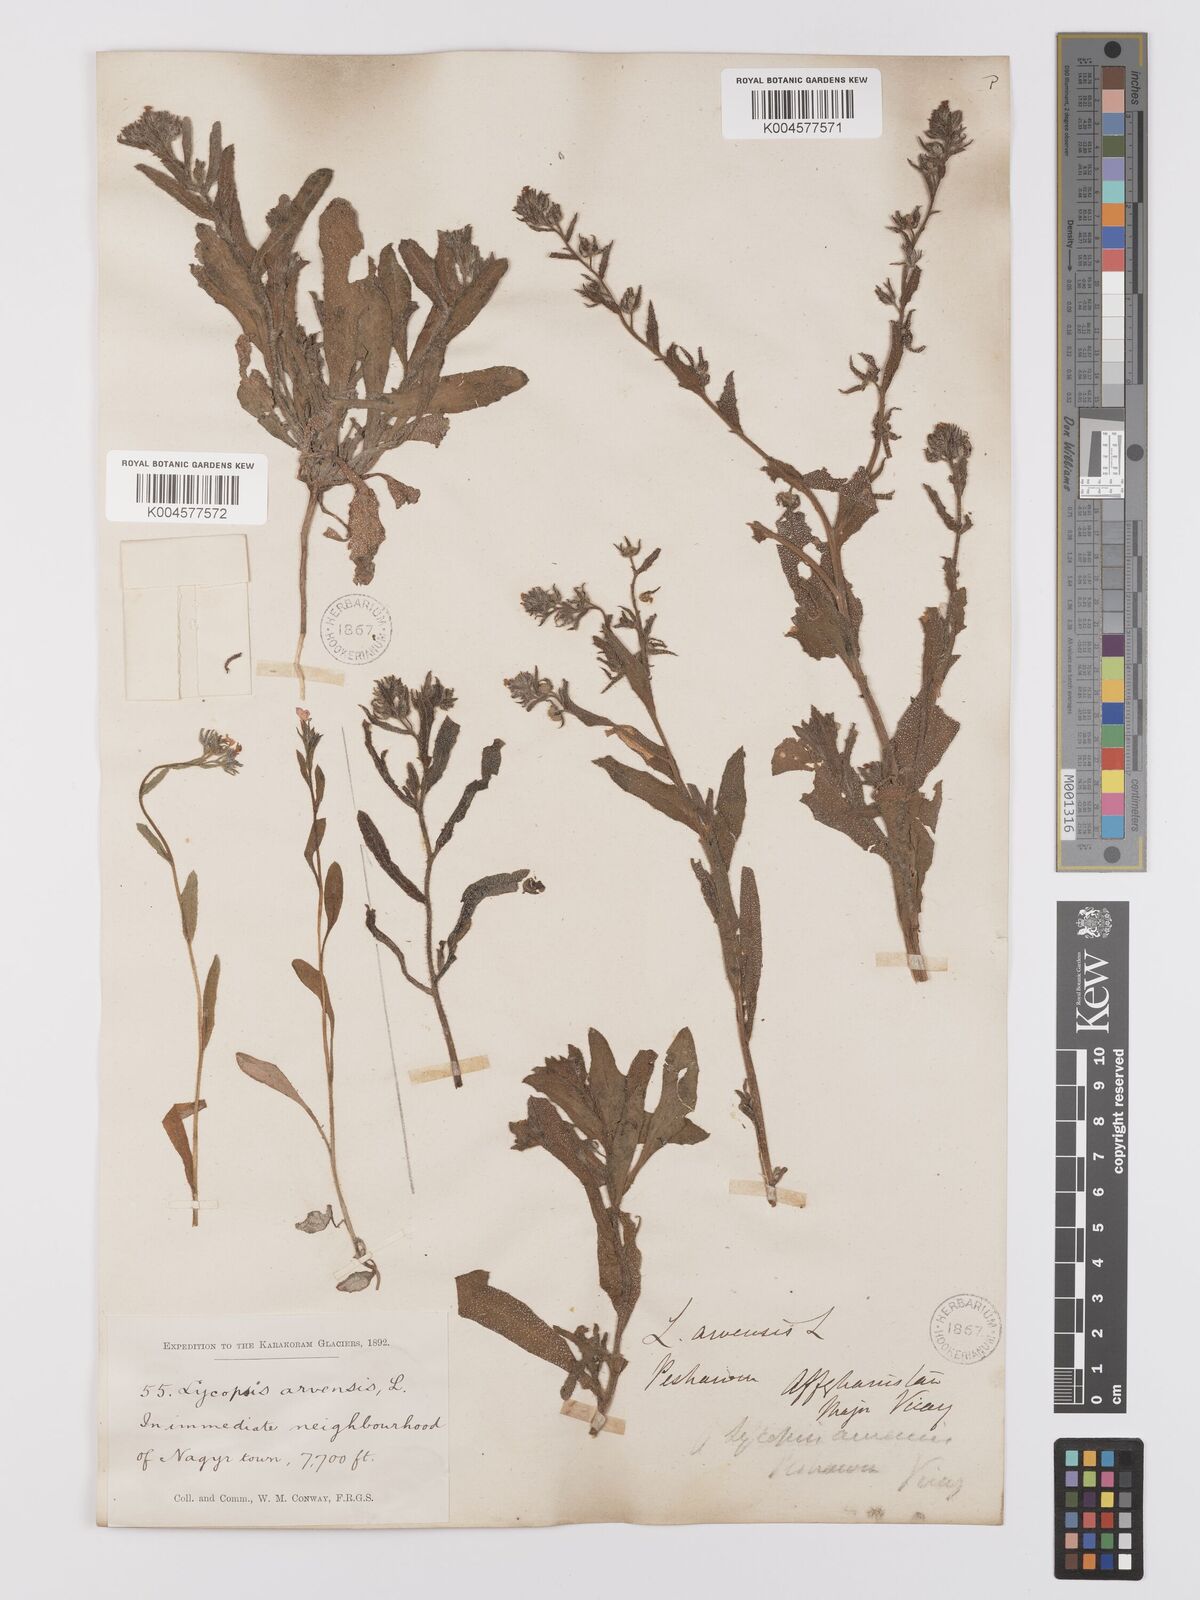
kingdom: Plantae
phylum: Tracheophyta
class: Magnoliopsida
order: Boraginales
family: Boraginaceae
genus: Lycopsis
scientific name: Lycopsis arvensis
